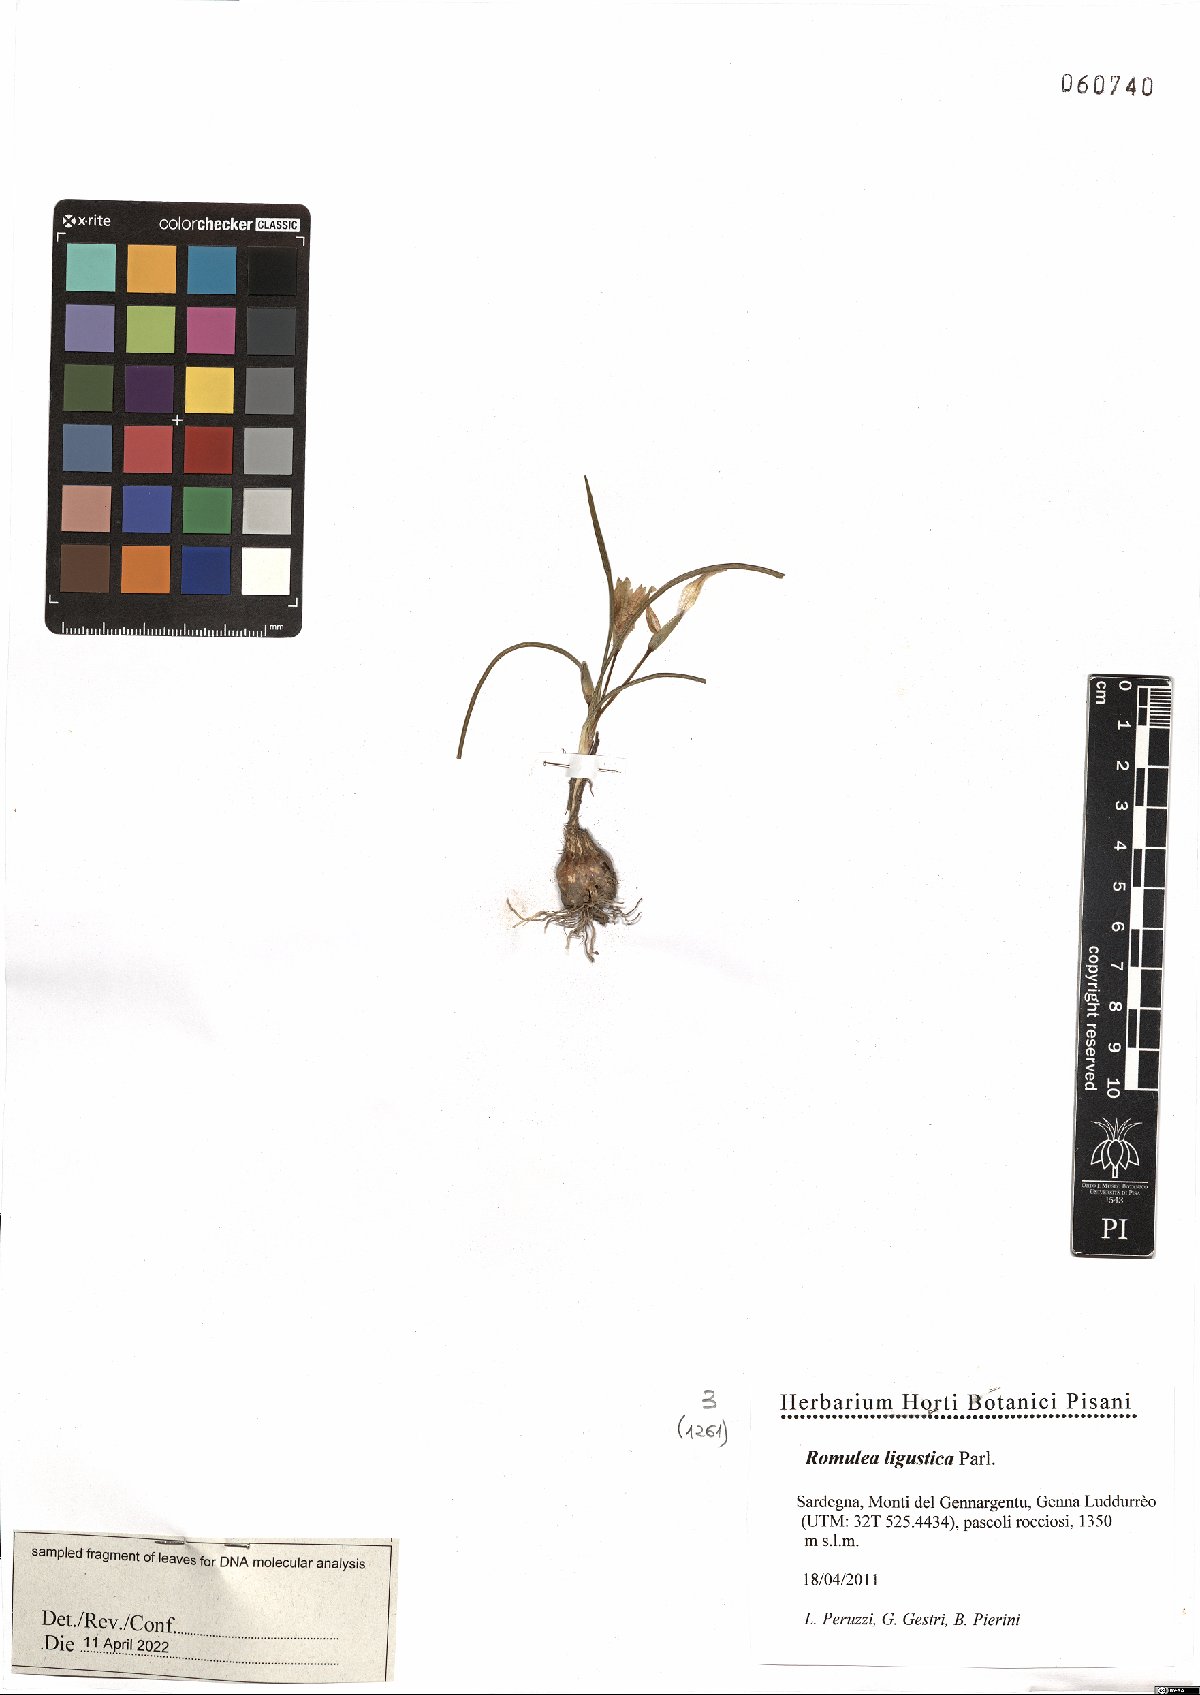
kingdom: Plantae
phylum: Tracheophyta
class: Liliopsida
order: Asparagales
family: Iridaceae
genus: Romulea
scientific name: Romulea ligustica
